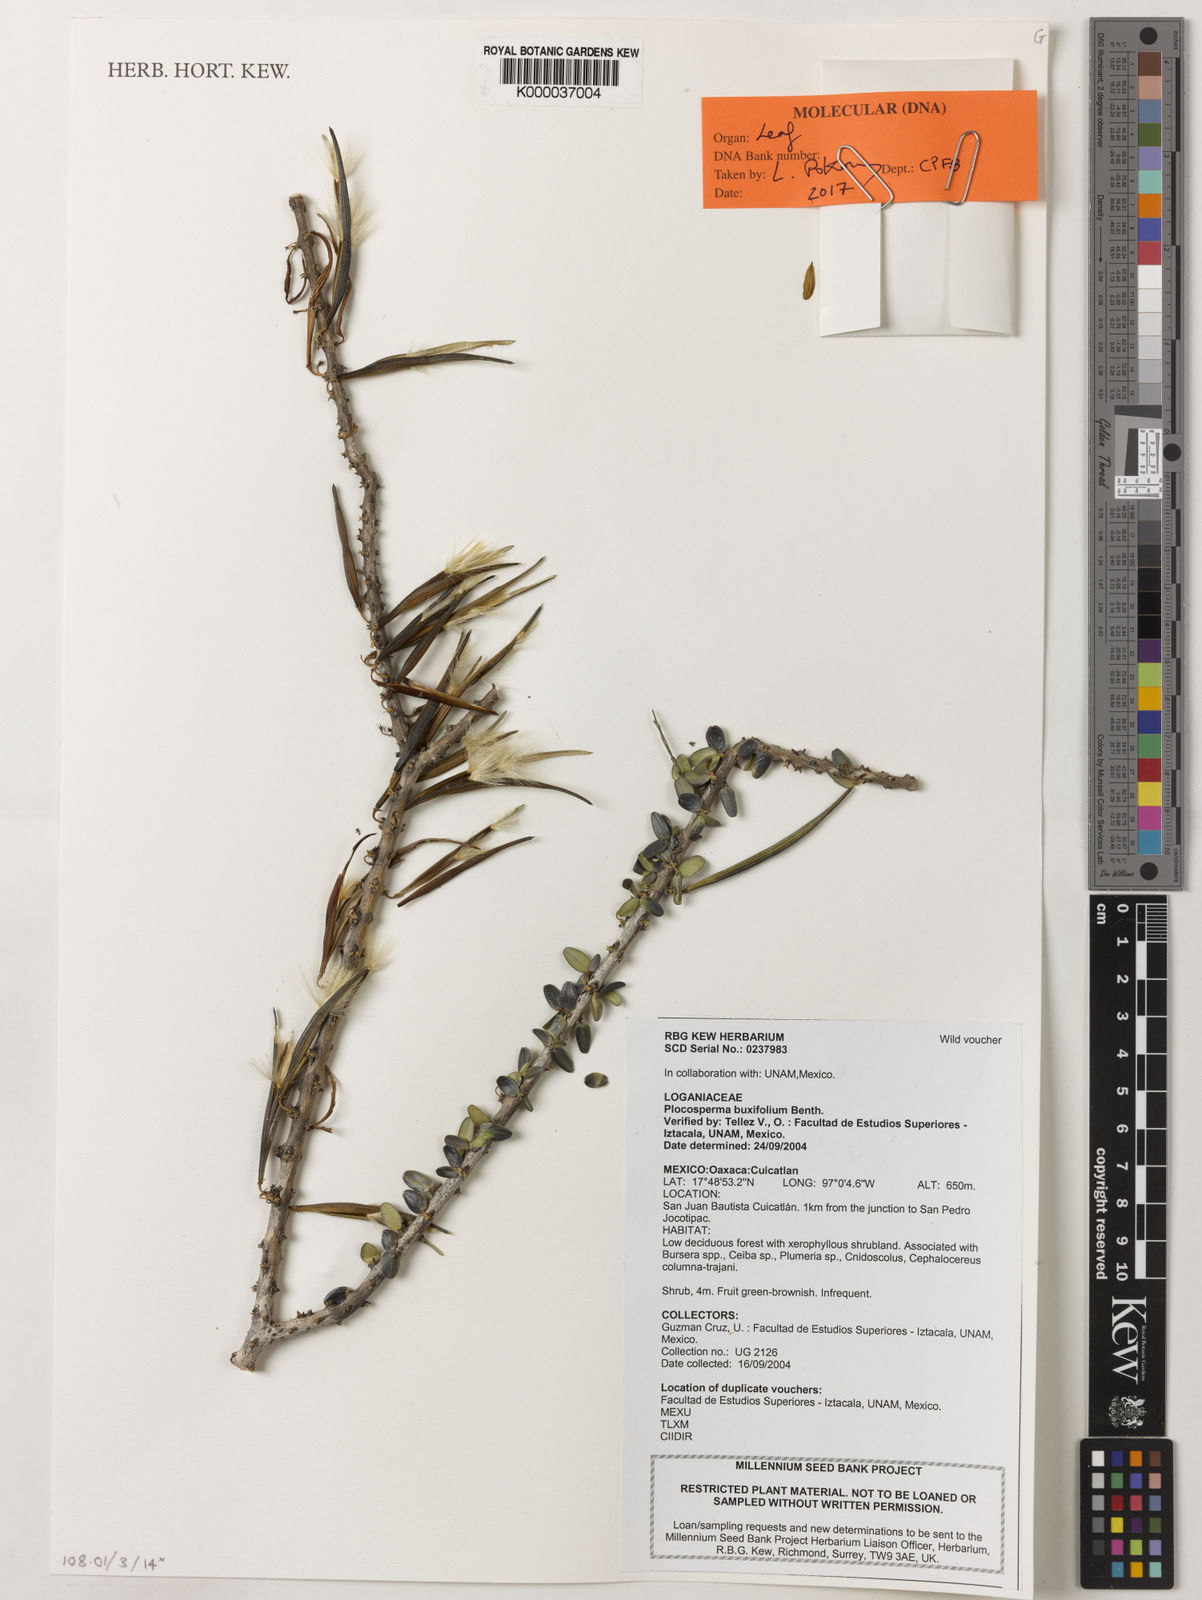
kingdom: Plantae
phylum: Tracheophyta
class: Magnoliopsida
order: Lamiales
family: Plocospermataceae
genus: Plocosperma
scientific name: Plocosperma buxifolium
